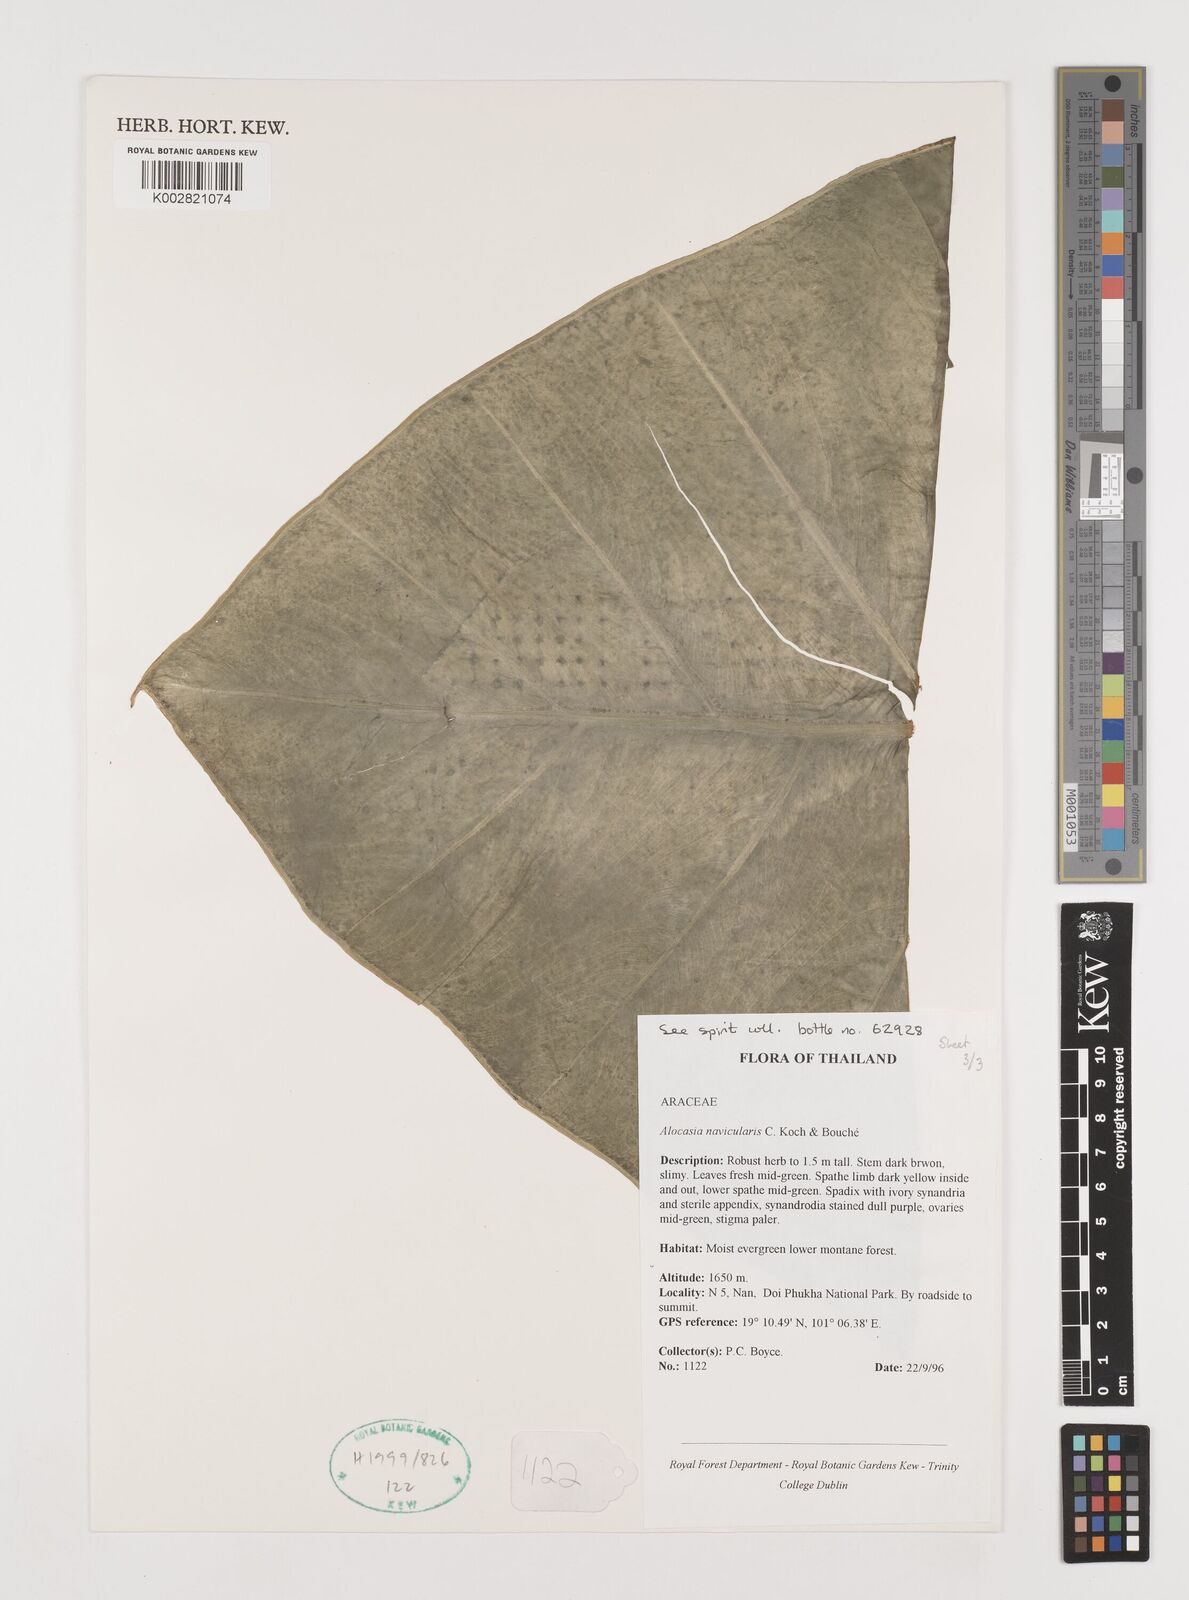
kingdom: Plantae
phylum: Tracheophyta
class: Liliopsida
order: Alismatales
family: Araceae
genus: Alocasia
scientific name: Alocasia navicularis
